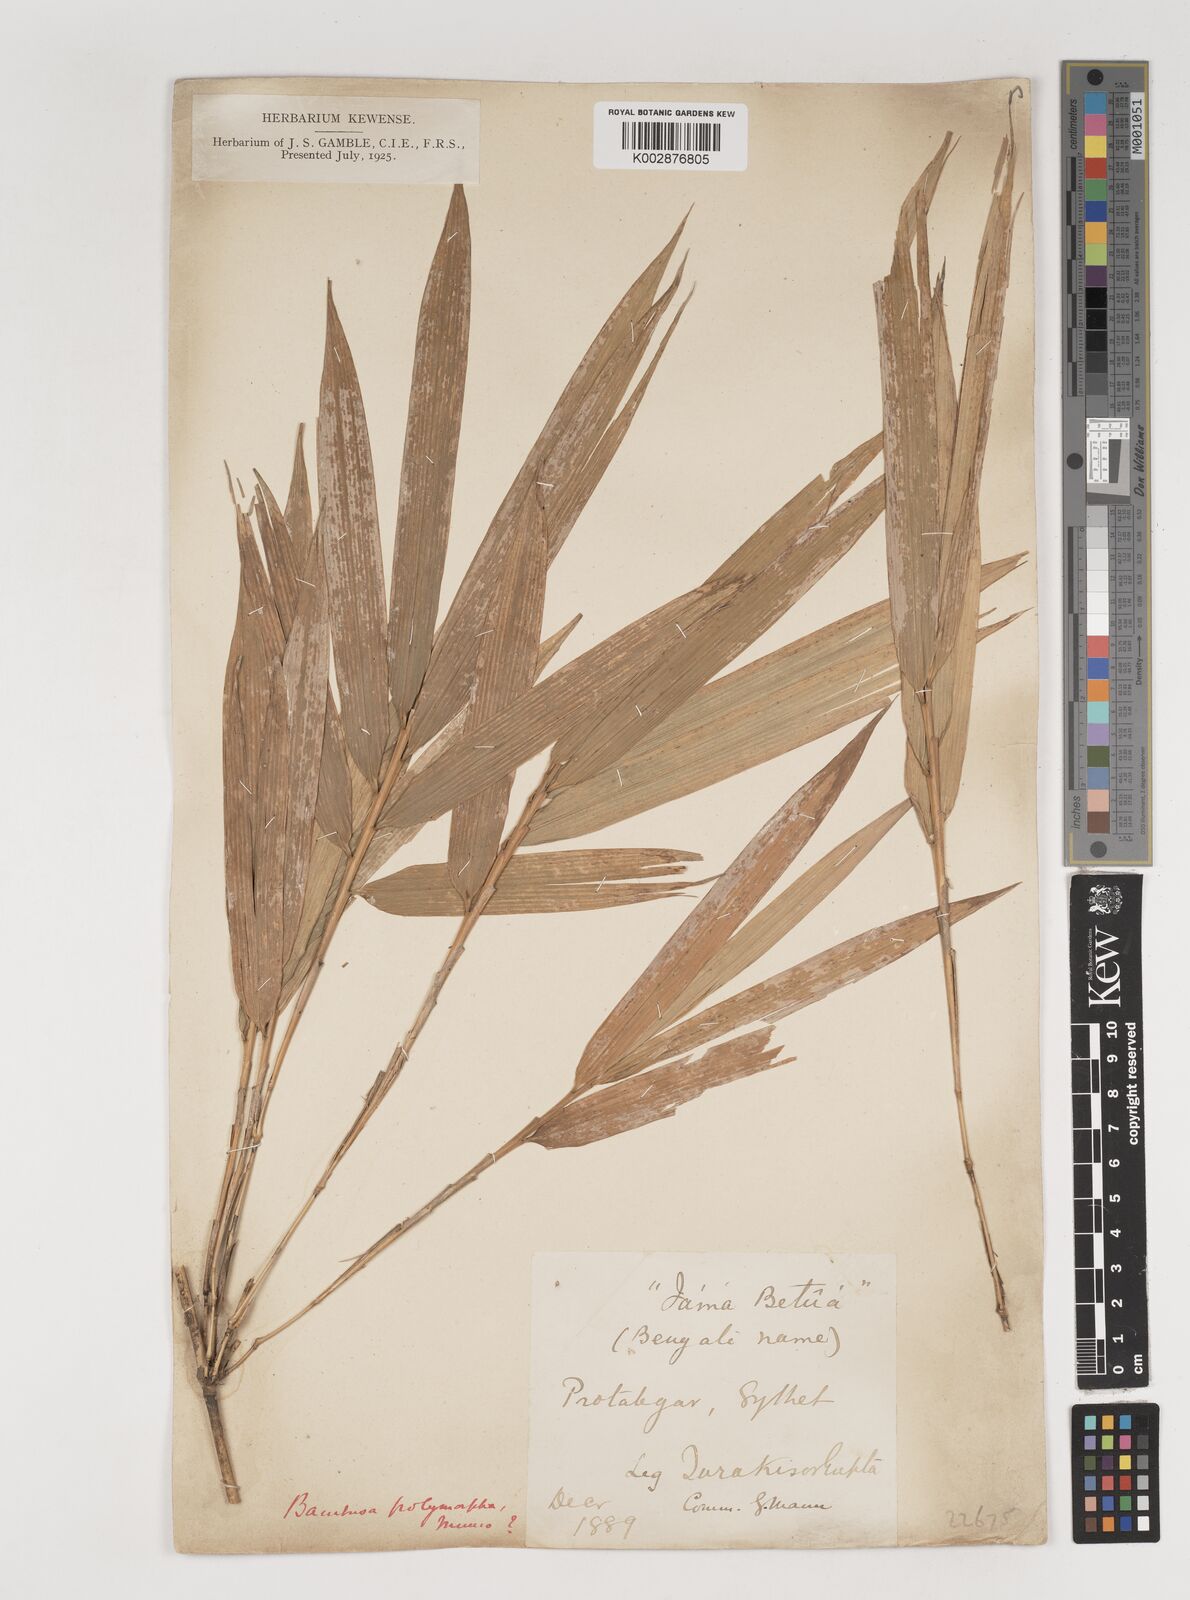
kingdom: Plantae
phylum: Tracheophyta
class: Liliopsida
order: Poales
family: Poaceae
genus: Bambusa
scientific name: Bambusa polymorpha
